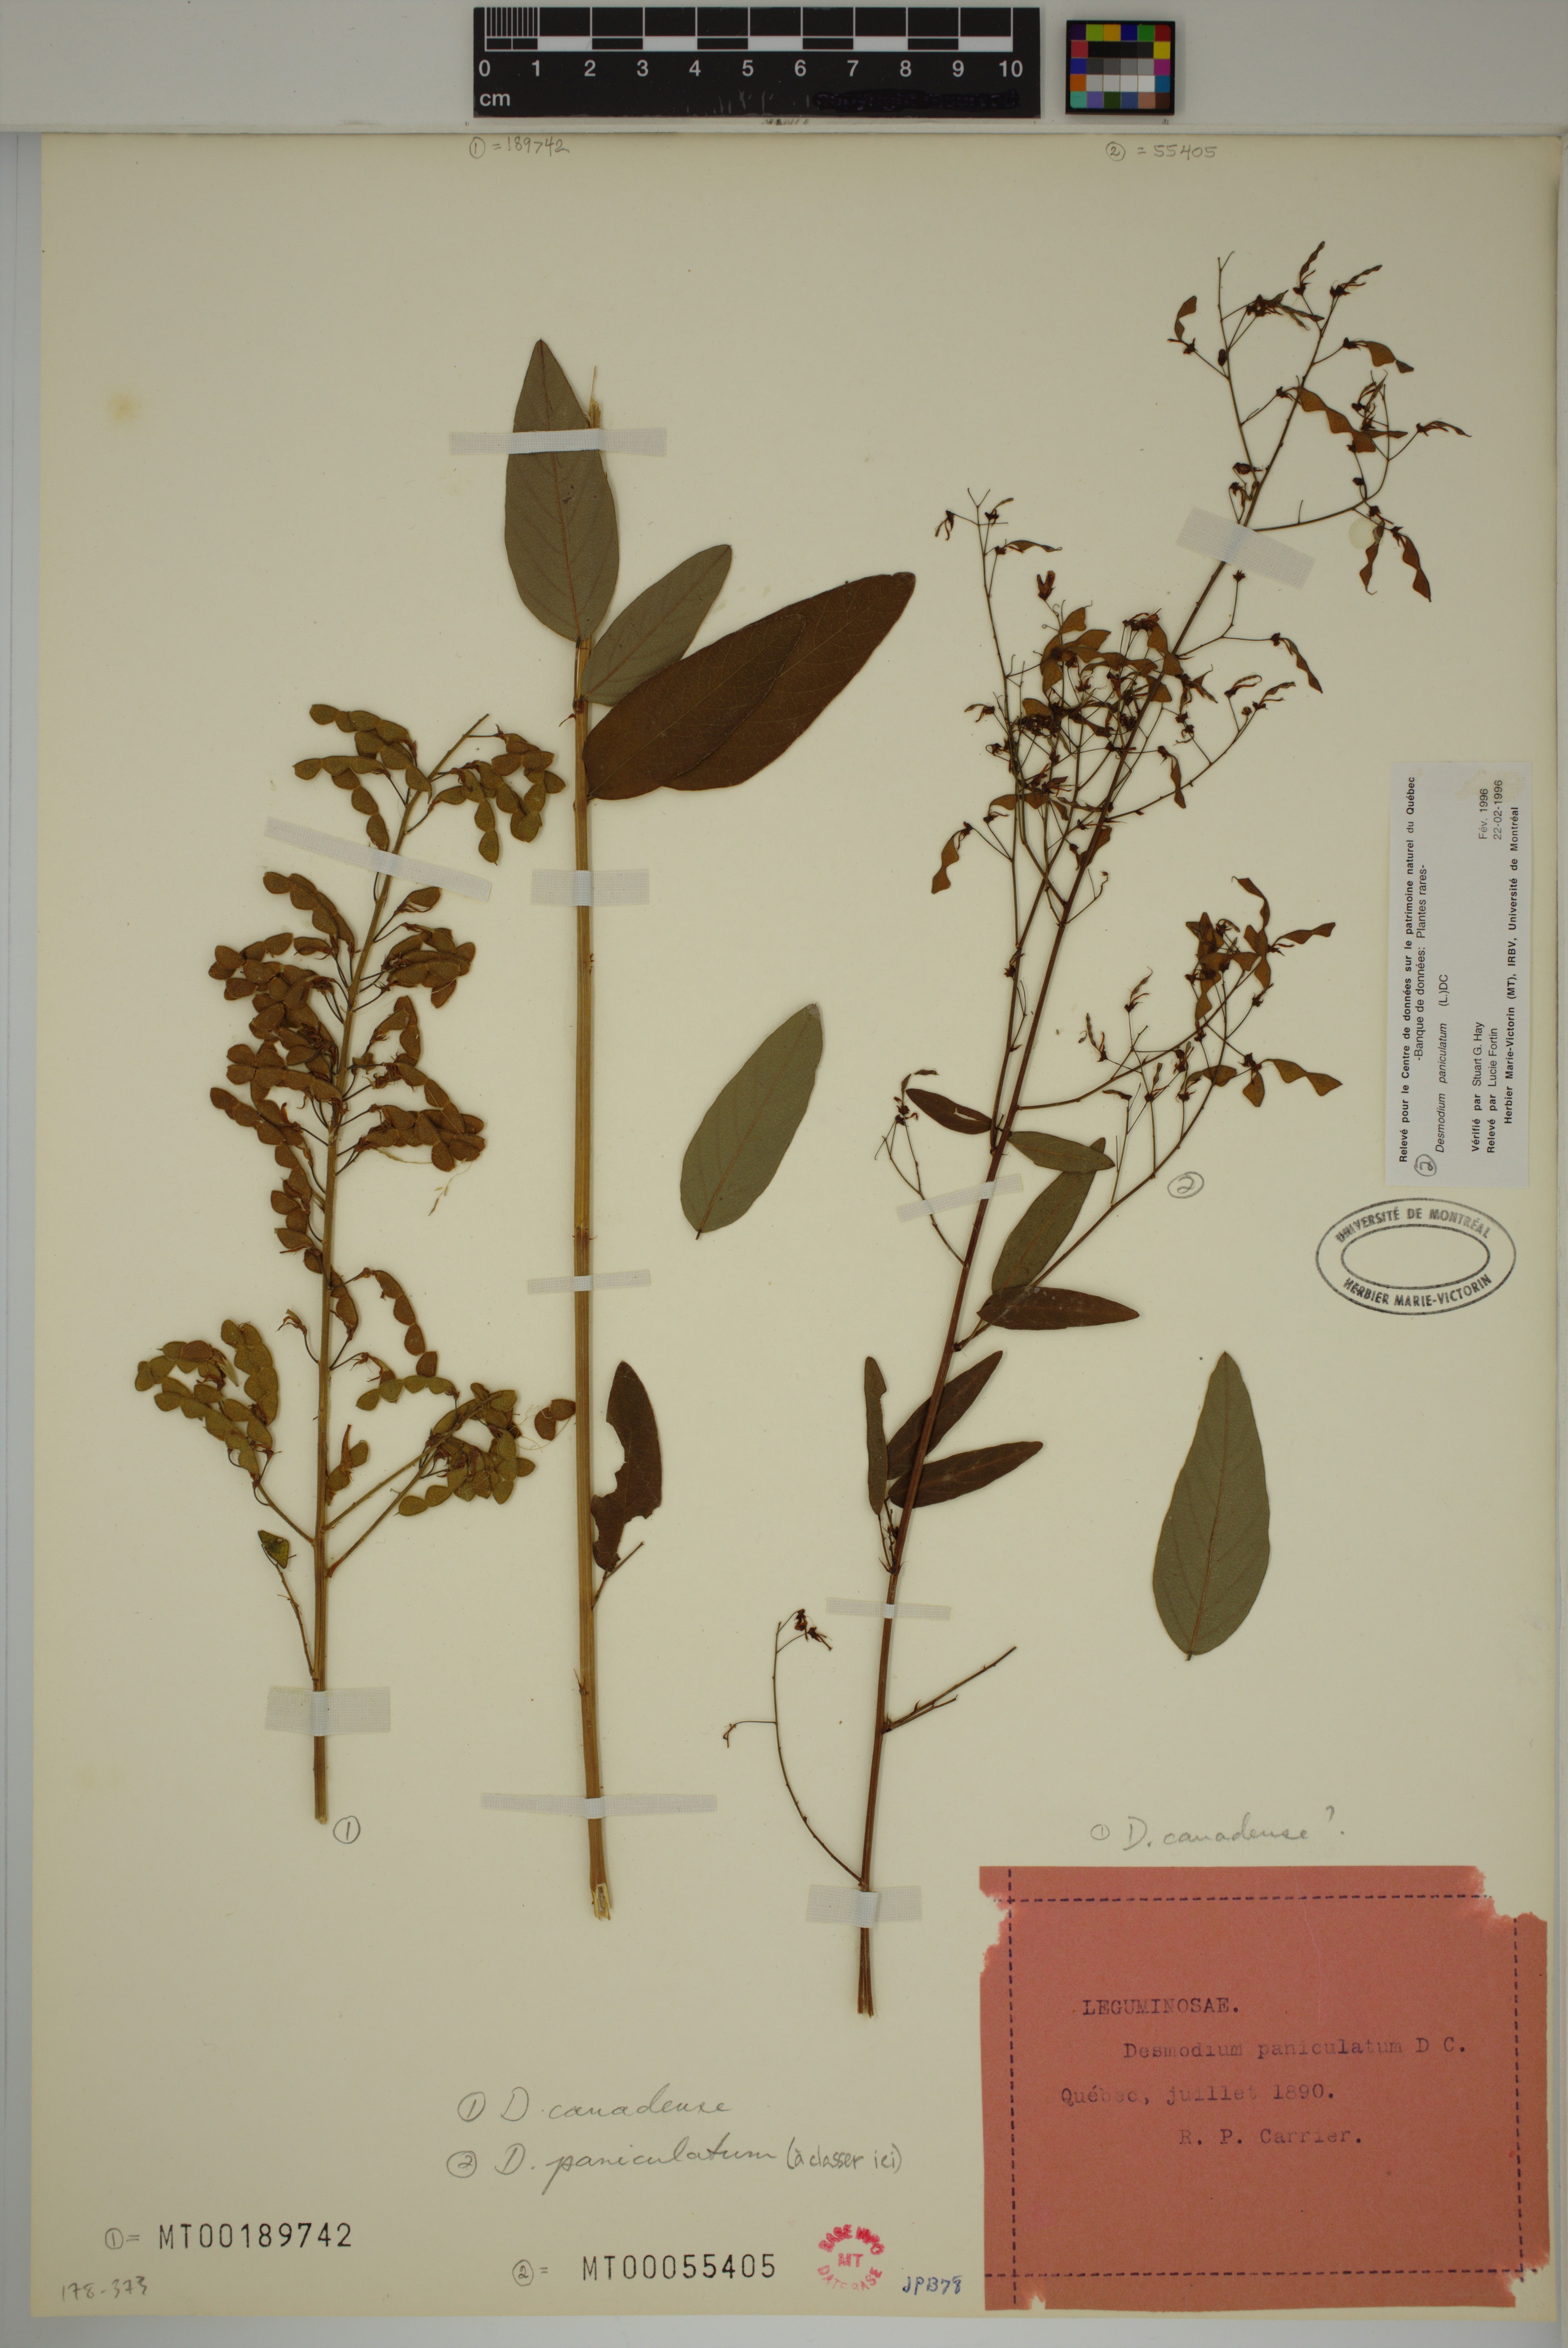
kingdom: Plantae
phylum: Tracheophyta
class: Magnoliopsida
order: Fabales
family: Fabaceae
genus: Desmodium
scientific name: Desmodium canadense
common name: Canada tick-trefoil
